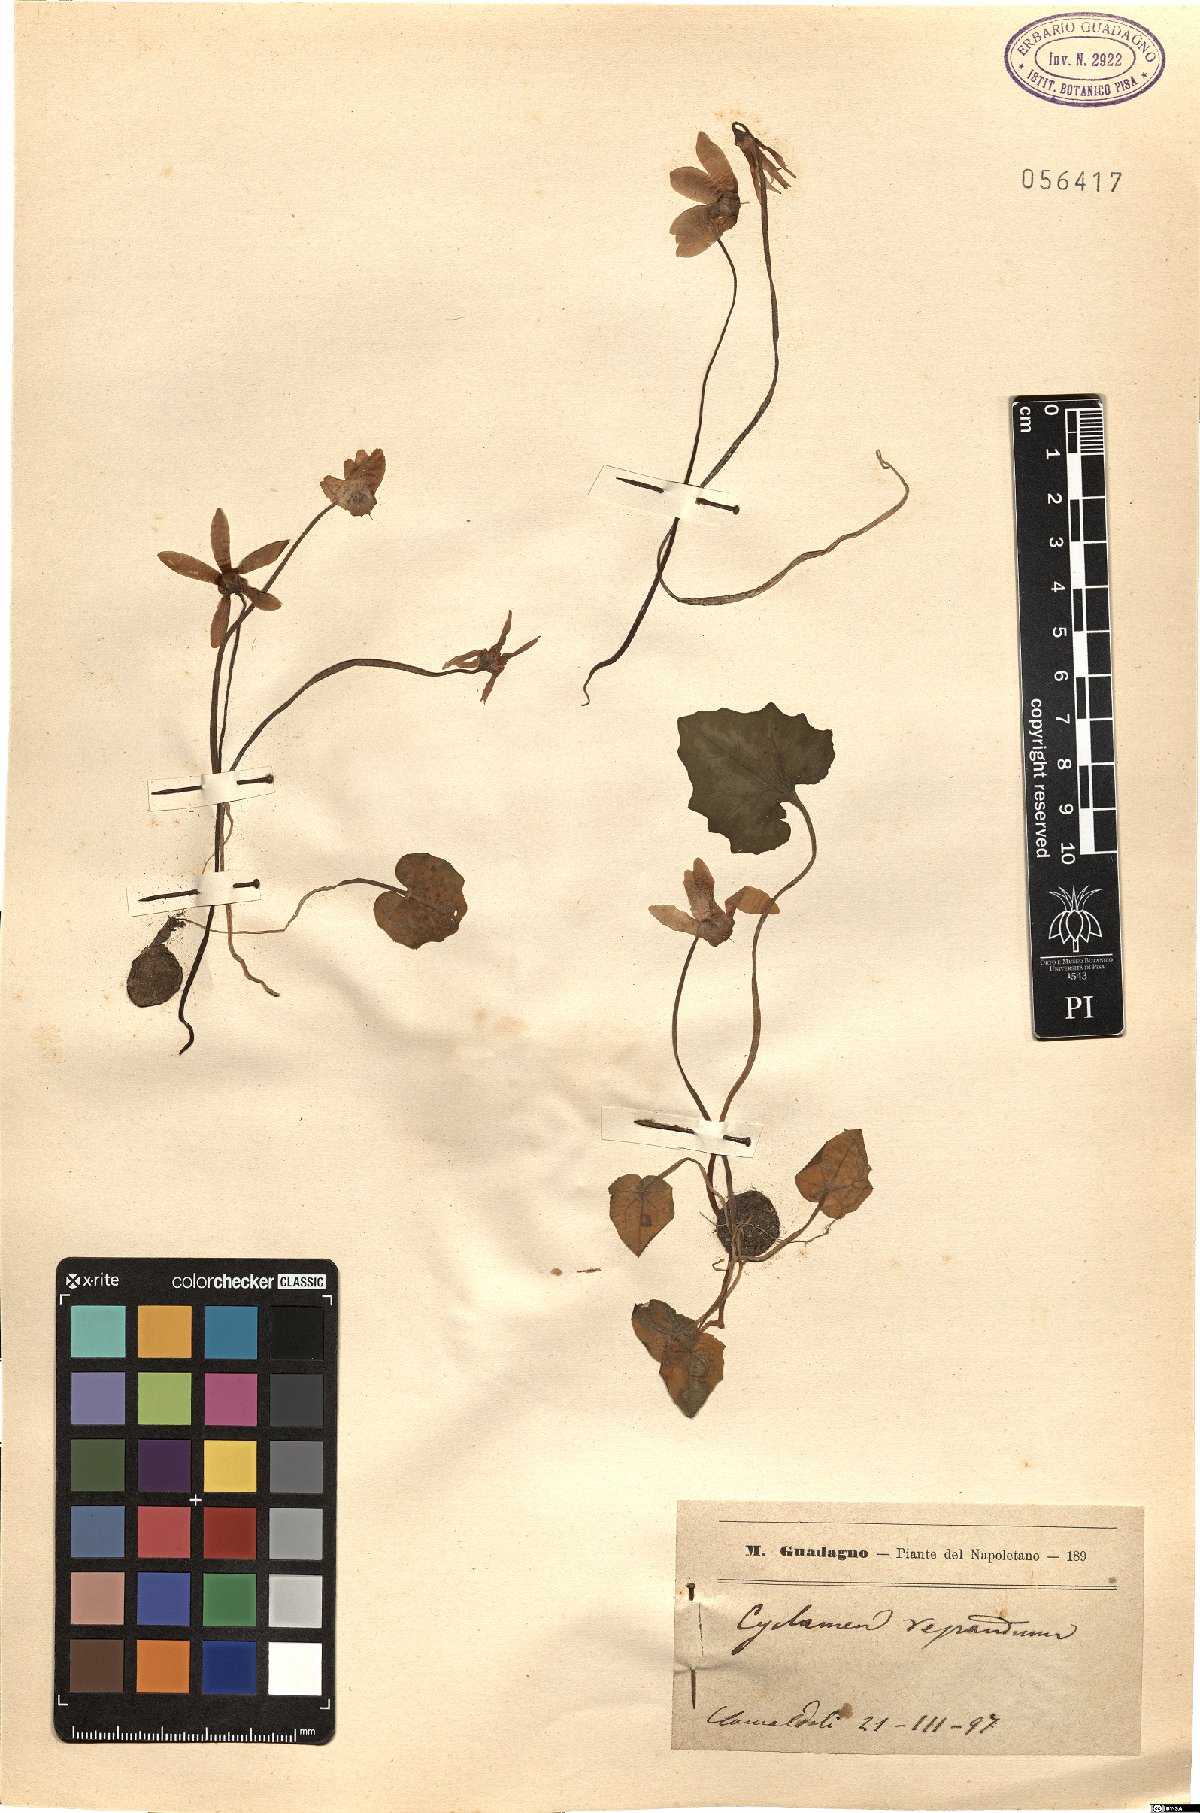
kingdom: Plantae
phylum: Tracheophyta
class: Magnoliopsida
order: Ericales
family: Primulaceae
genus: Cyclamen
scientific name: Cyclamen repandum
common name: Spring sowbread
